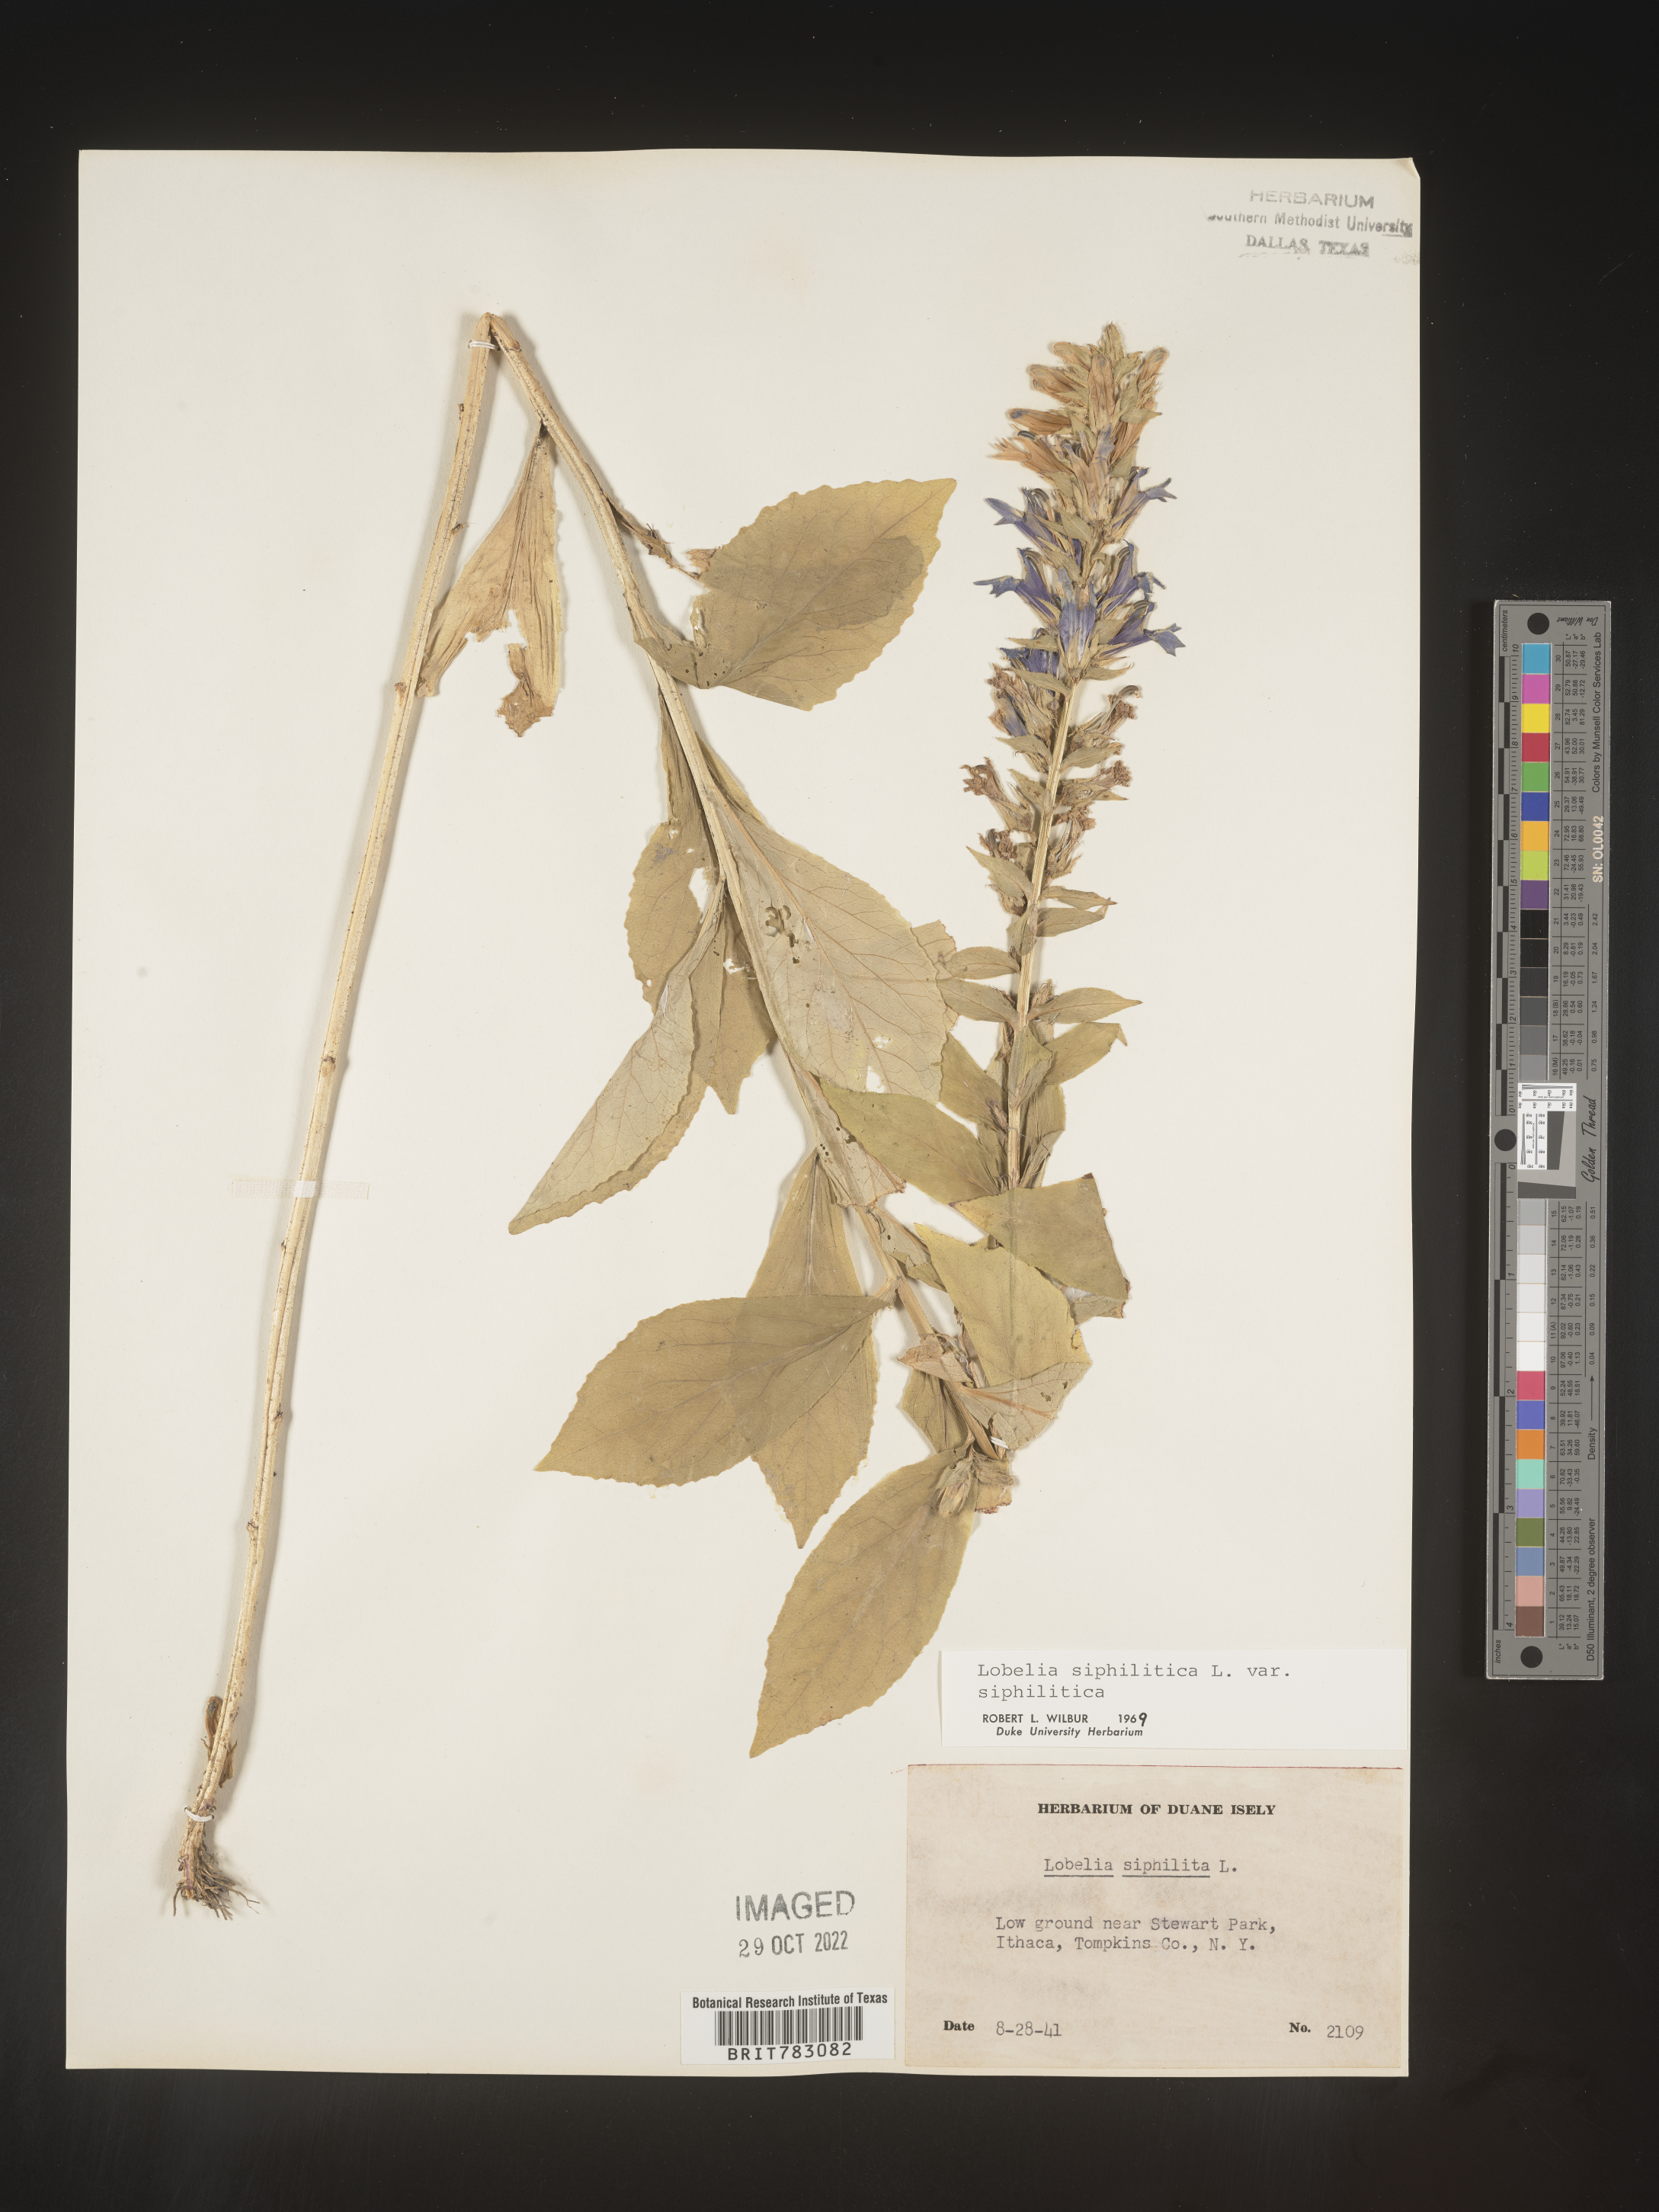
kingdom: Plantae
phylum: Tracheophyta
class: Magnoliopsida
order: Asterales
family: Campanulaceae
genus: Lobelia
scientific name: Lobelia siphilitica
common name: Great lobelia
